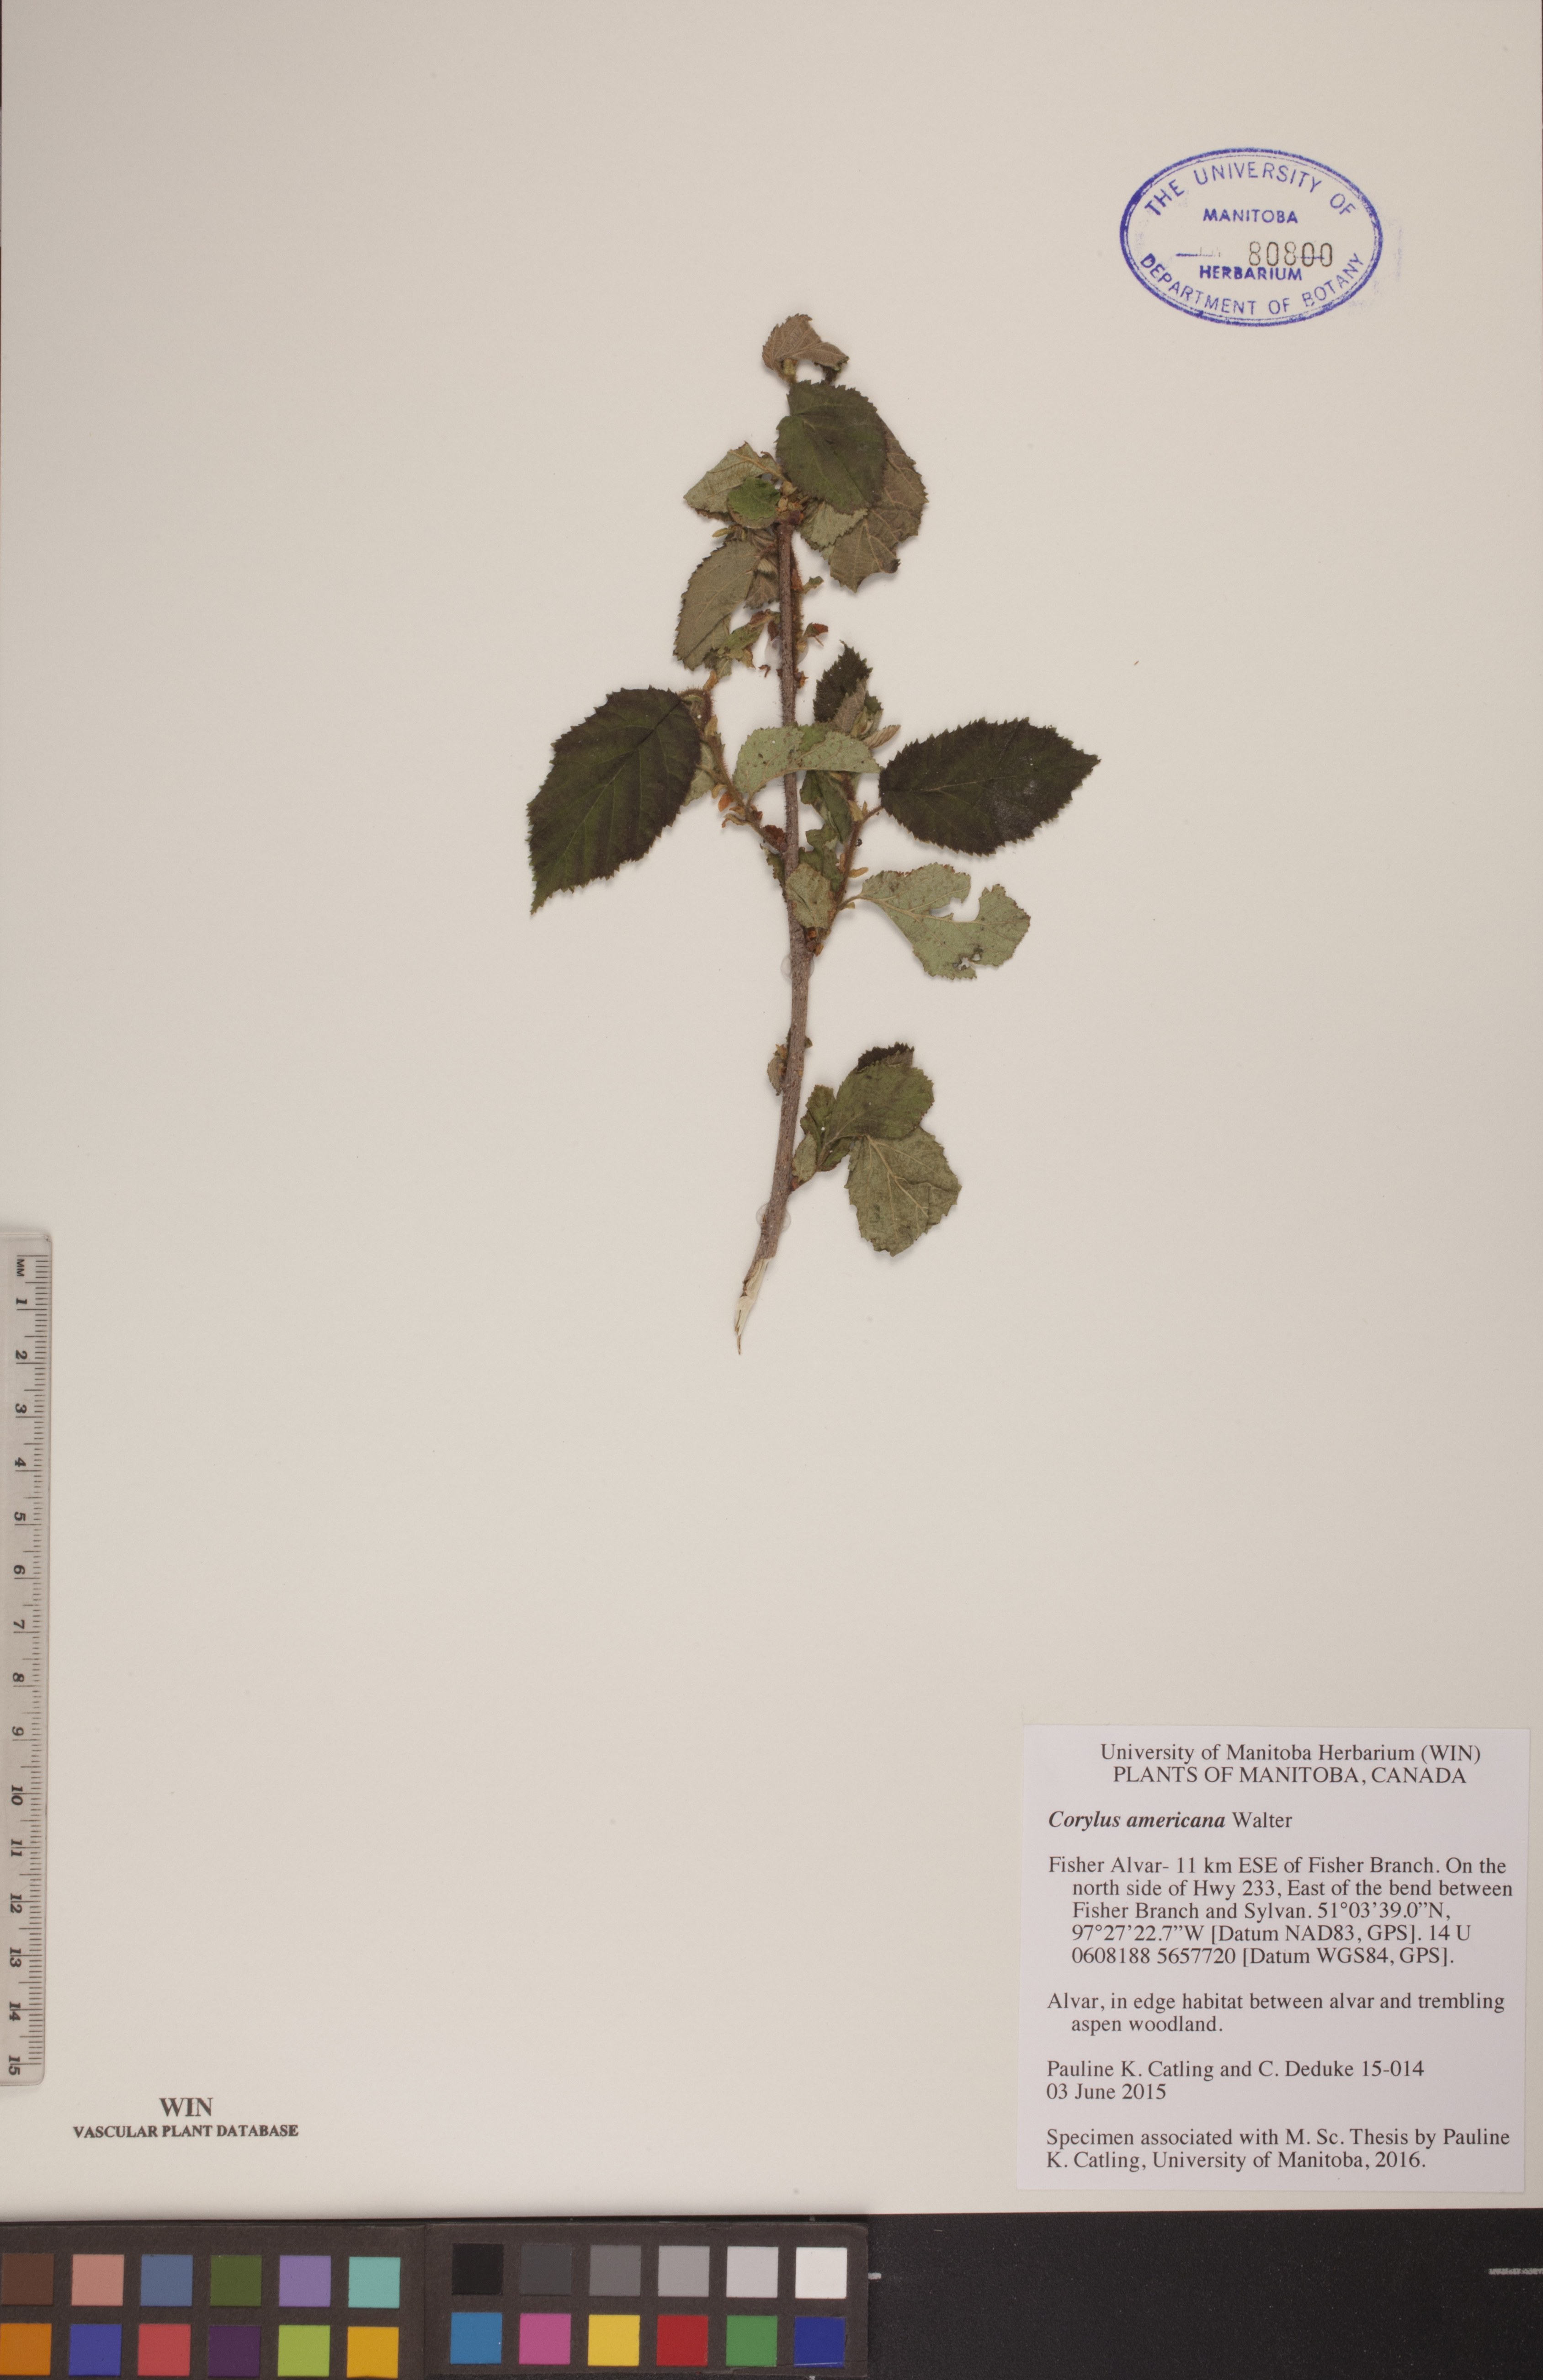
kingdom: Plantae
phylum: Tracheophyta
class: Magnoliopsida
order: Fagales
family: Betulaceae
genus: Corylus
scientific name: Corylus americana
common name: American hazel
